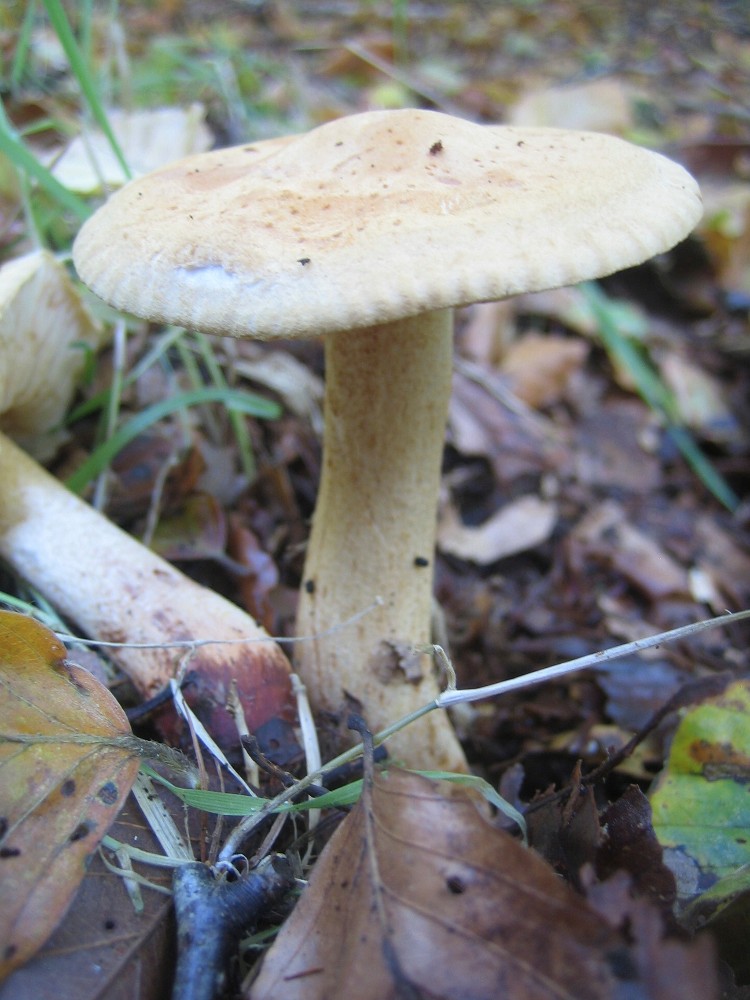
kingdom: Fungi
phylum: Basidiomycota
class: Agaricomycetes
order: Agaricales
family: Tricholomataceae
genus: Tricholoma
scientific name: Tricholoma psammopus
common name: grynstokket ridderhat
